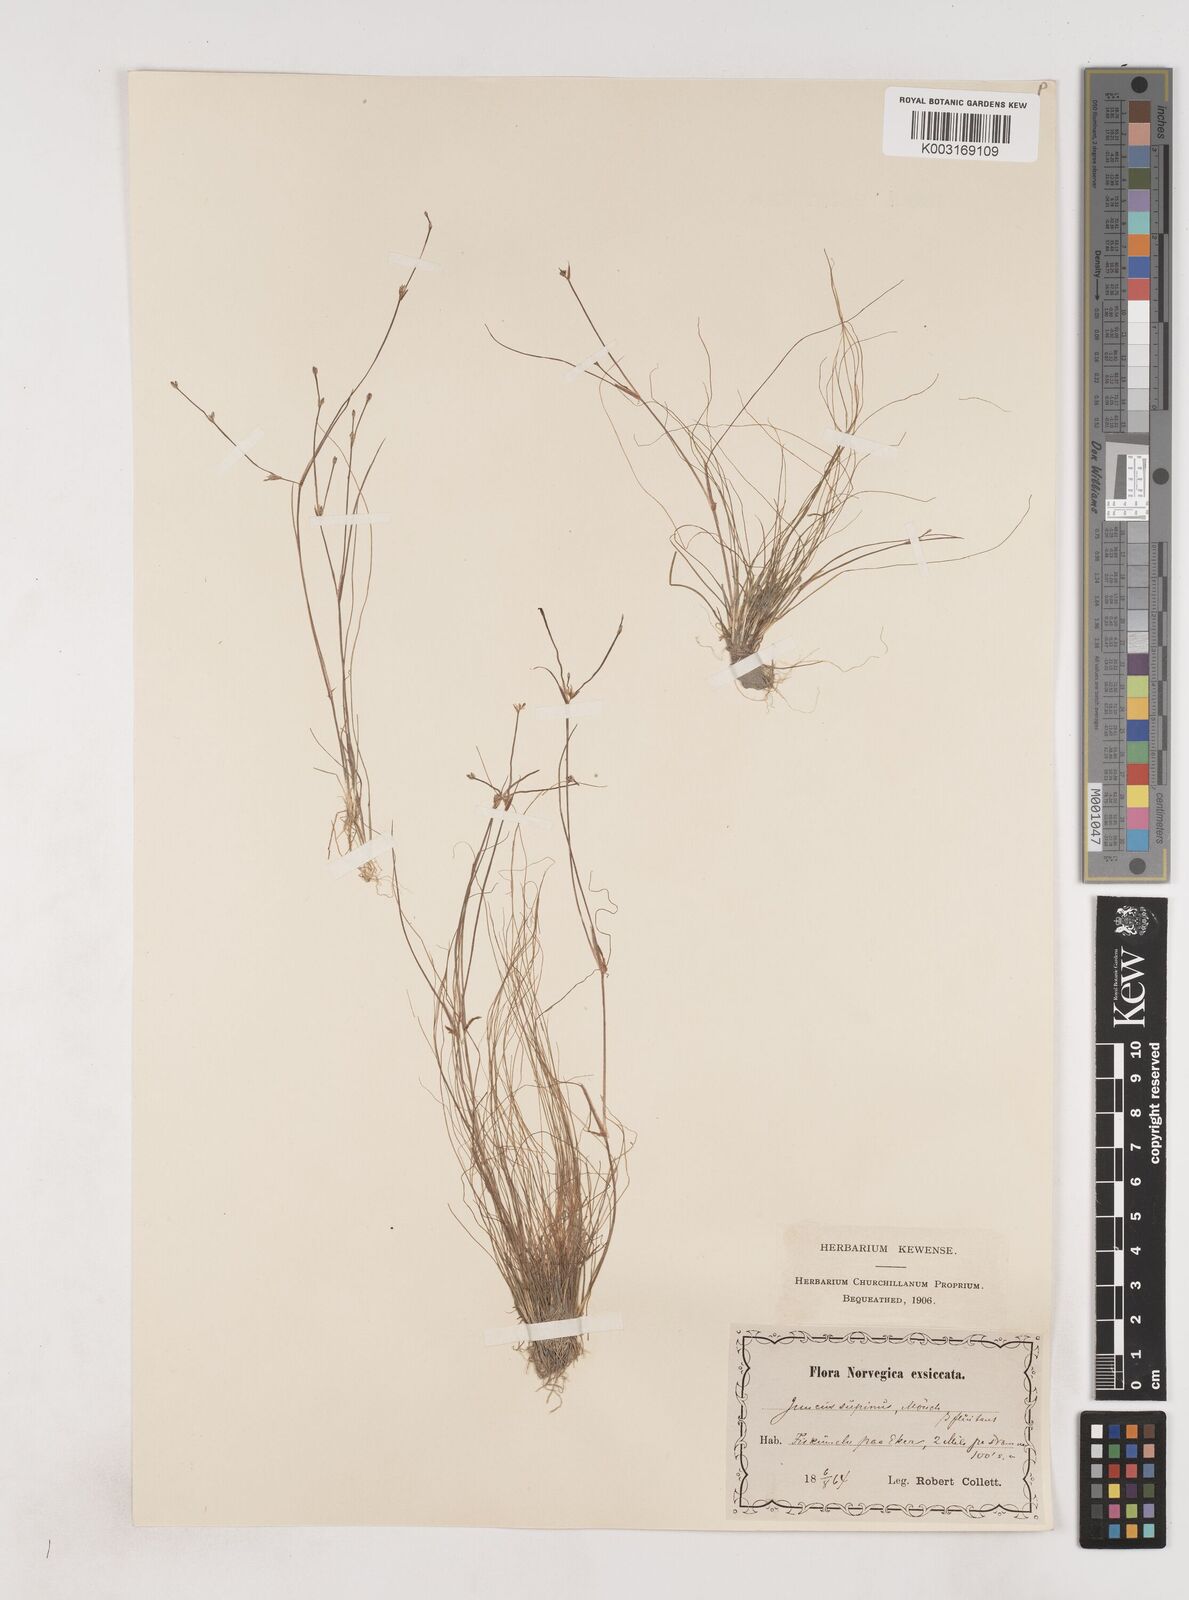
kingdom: Plantae
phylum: Tracheophyta
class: Liliopsida
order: Poales
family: Juncaceae
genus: Juncus
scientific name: Juncus bulbosus
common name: Bulbous rush
